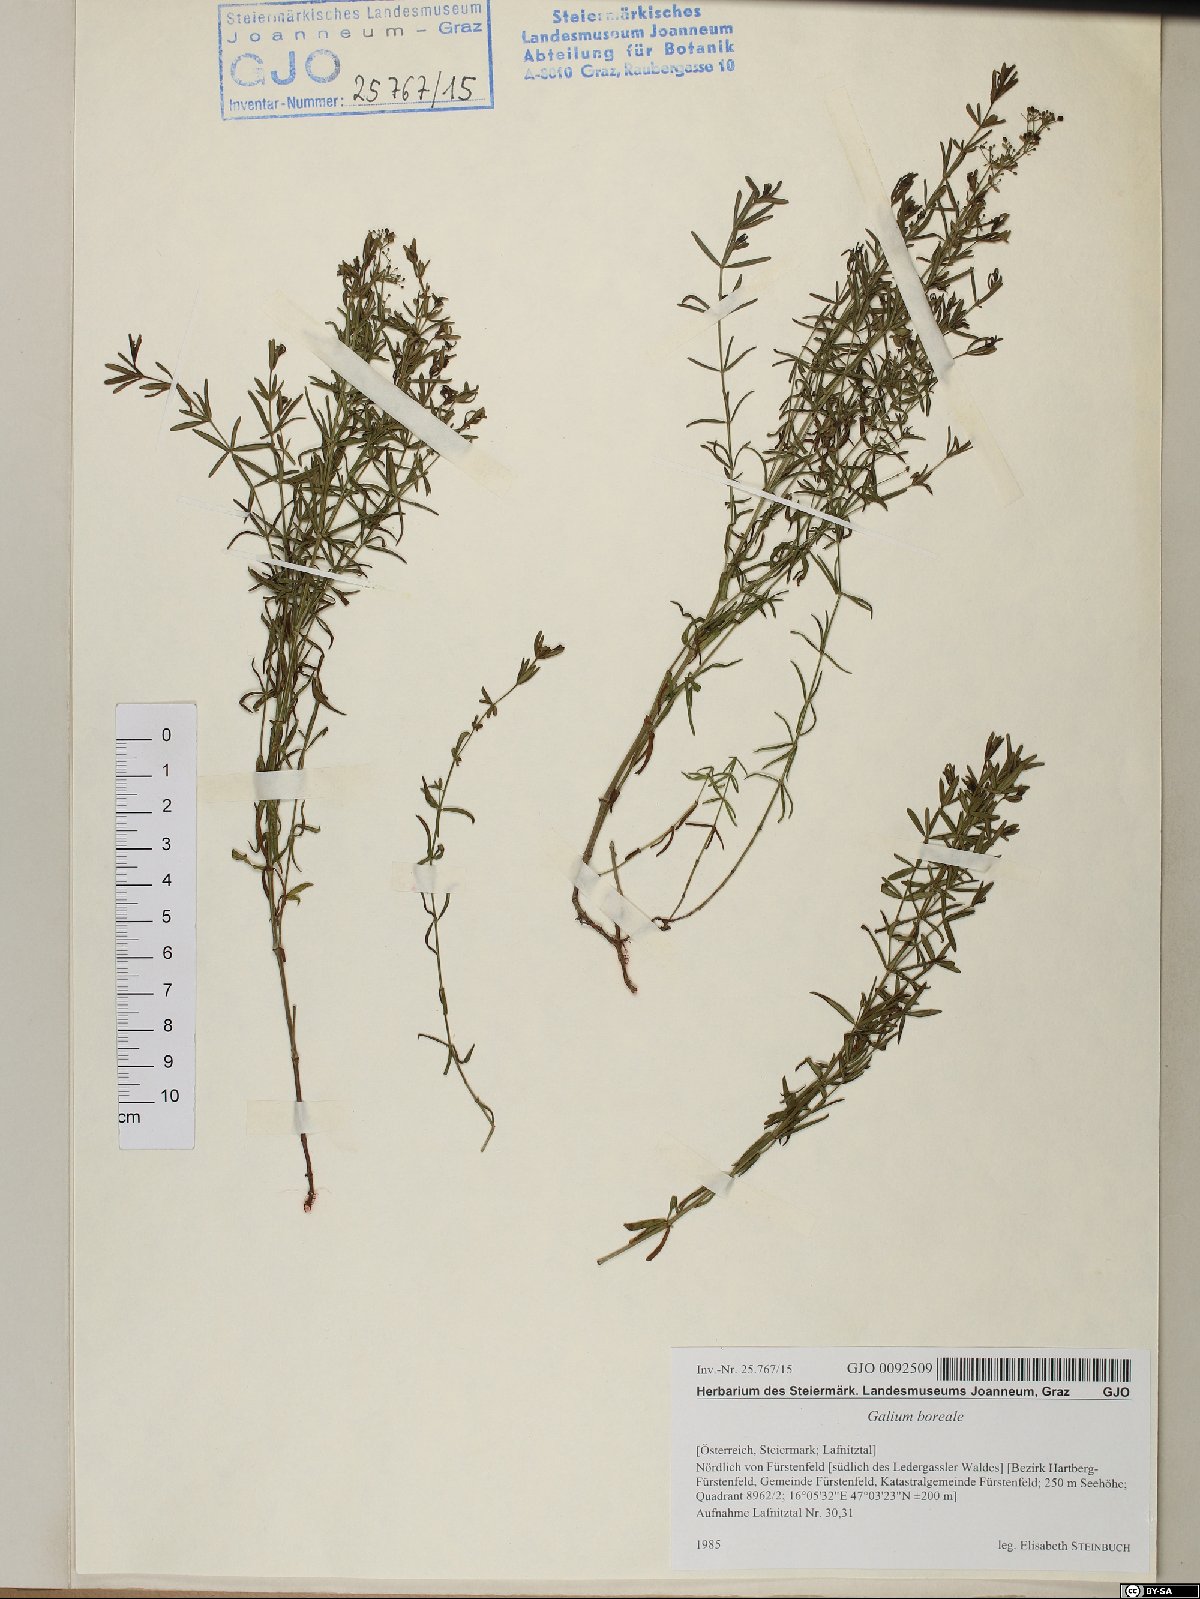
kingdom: Plantae
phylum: Tracheophyta
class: Magnoliopsida
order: Gentianales
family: Rubiaceae
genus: Galium
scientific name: Galium boreale
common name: Northern bedstraw
